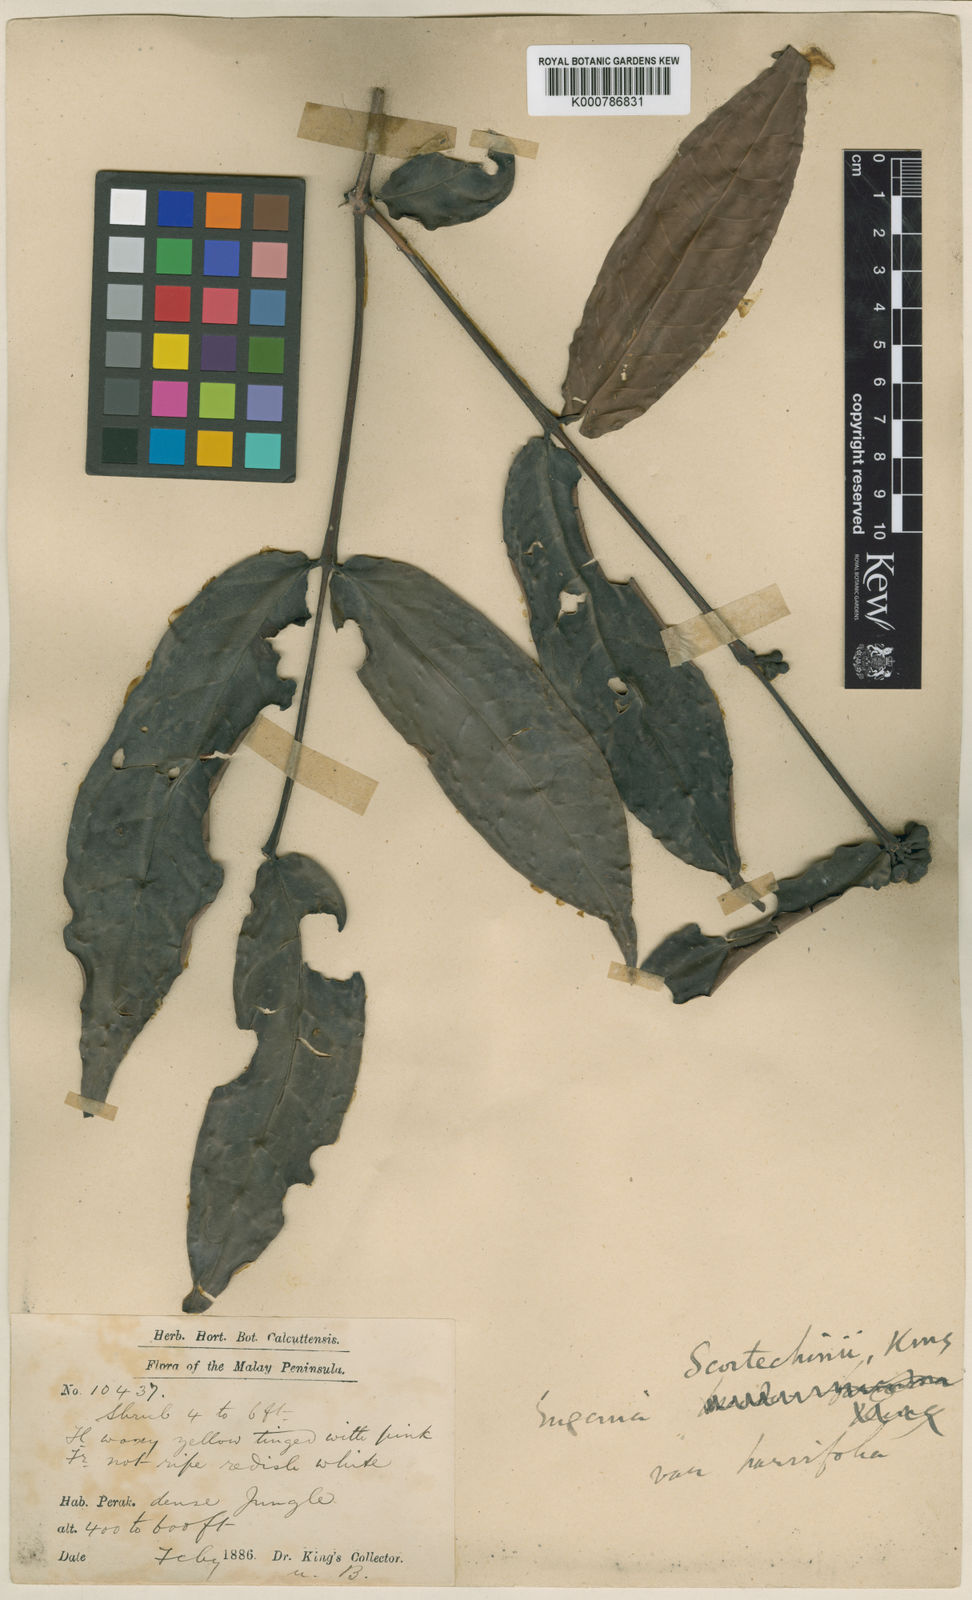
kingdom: Plantae
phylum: Tracheophyta
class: Magnoliopsida
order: Myrtales
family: Myrtaceae
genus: Syzygium
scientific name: Syzygium scortechinii
